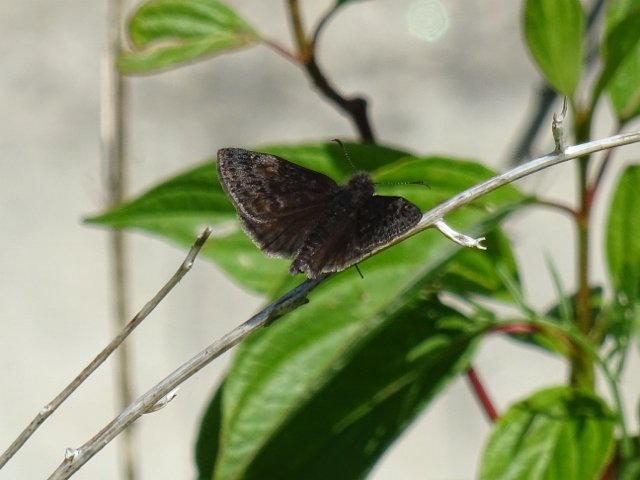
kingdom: Animalia
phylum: Arthropoda
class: Insecta
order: Lepidoptera
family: Hesperiidae
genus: Erynnis
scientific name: Erynnis
